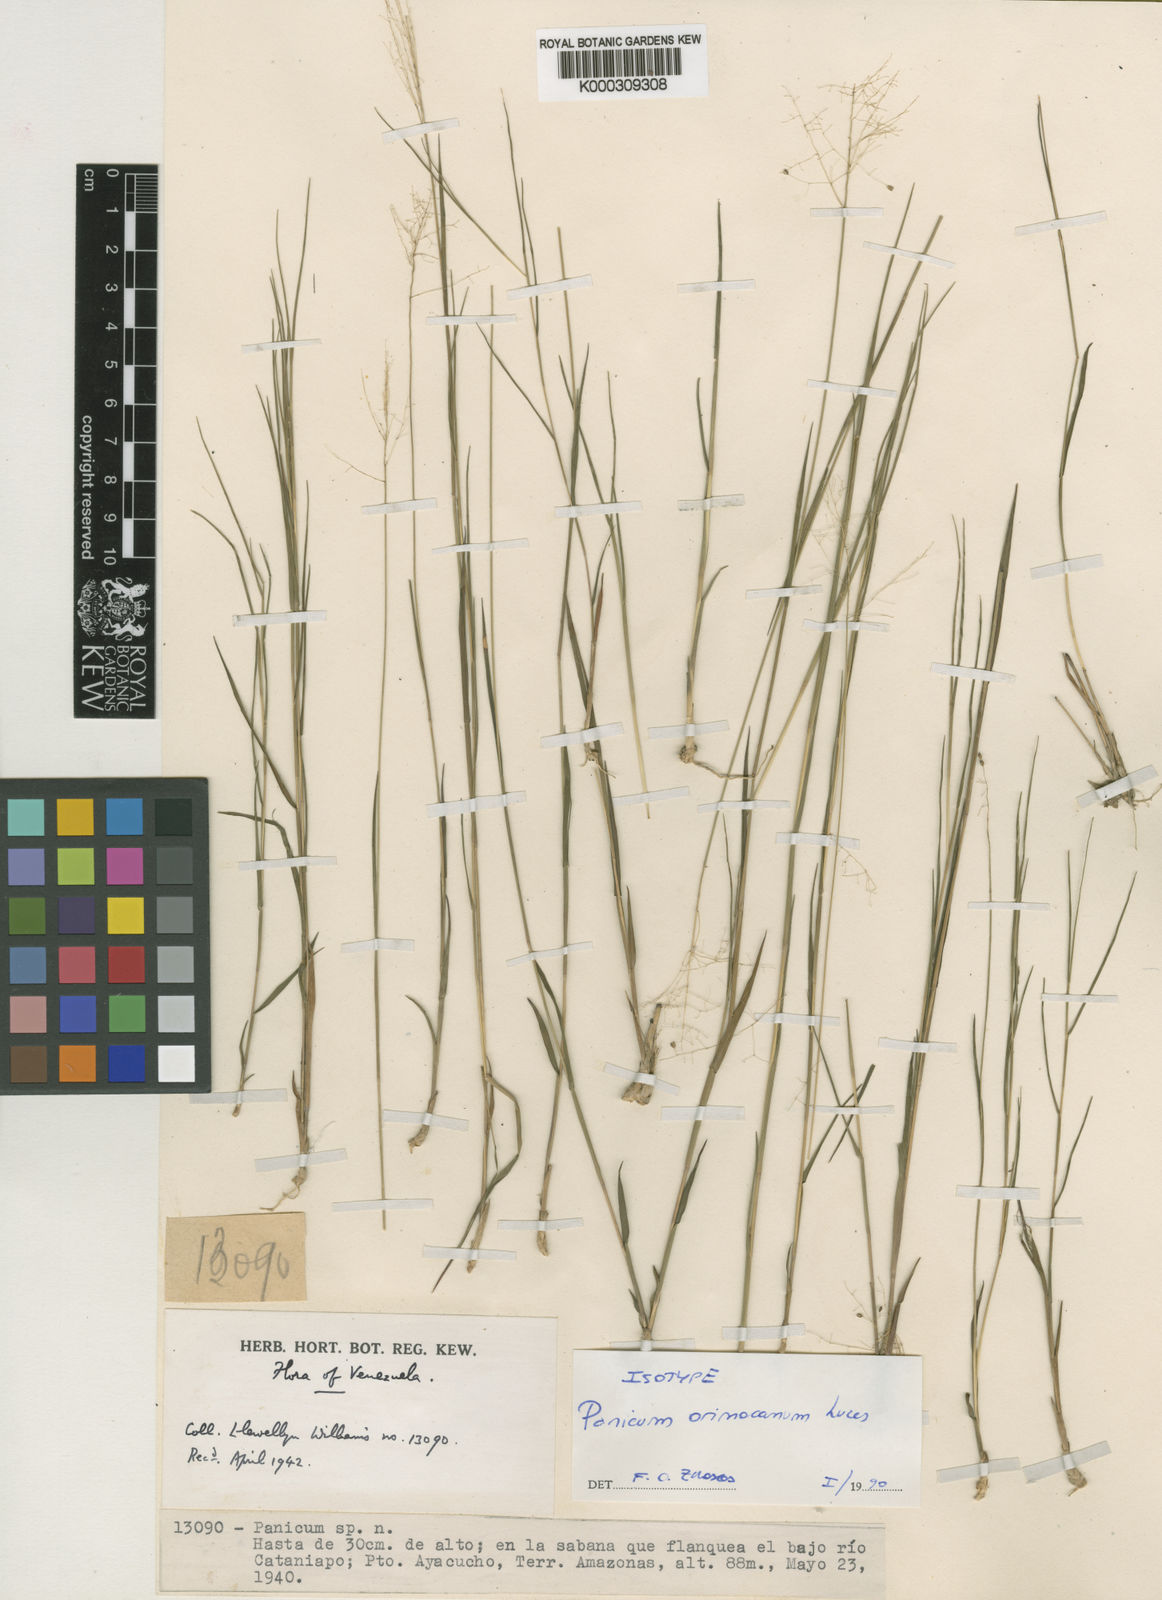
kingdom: Plantae
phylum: Tracheophyta
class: Liliopsida
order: Poales
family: Poaceae
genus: Trichanthecium
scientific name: Trichanthecium orinocanum
